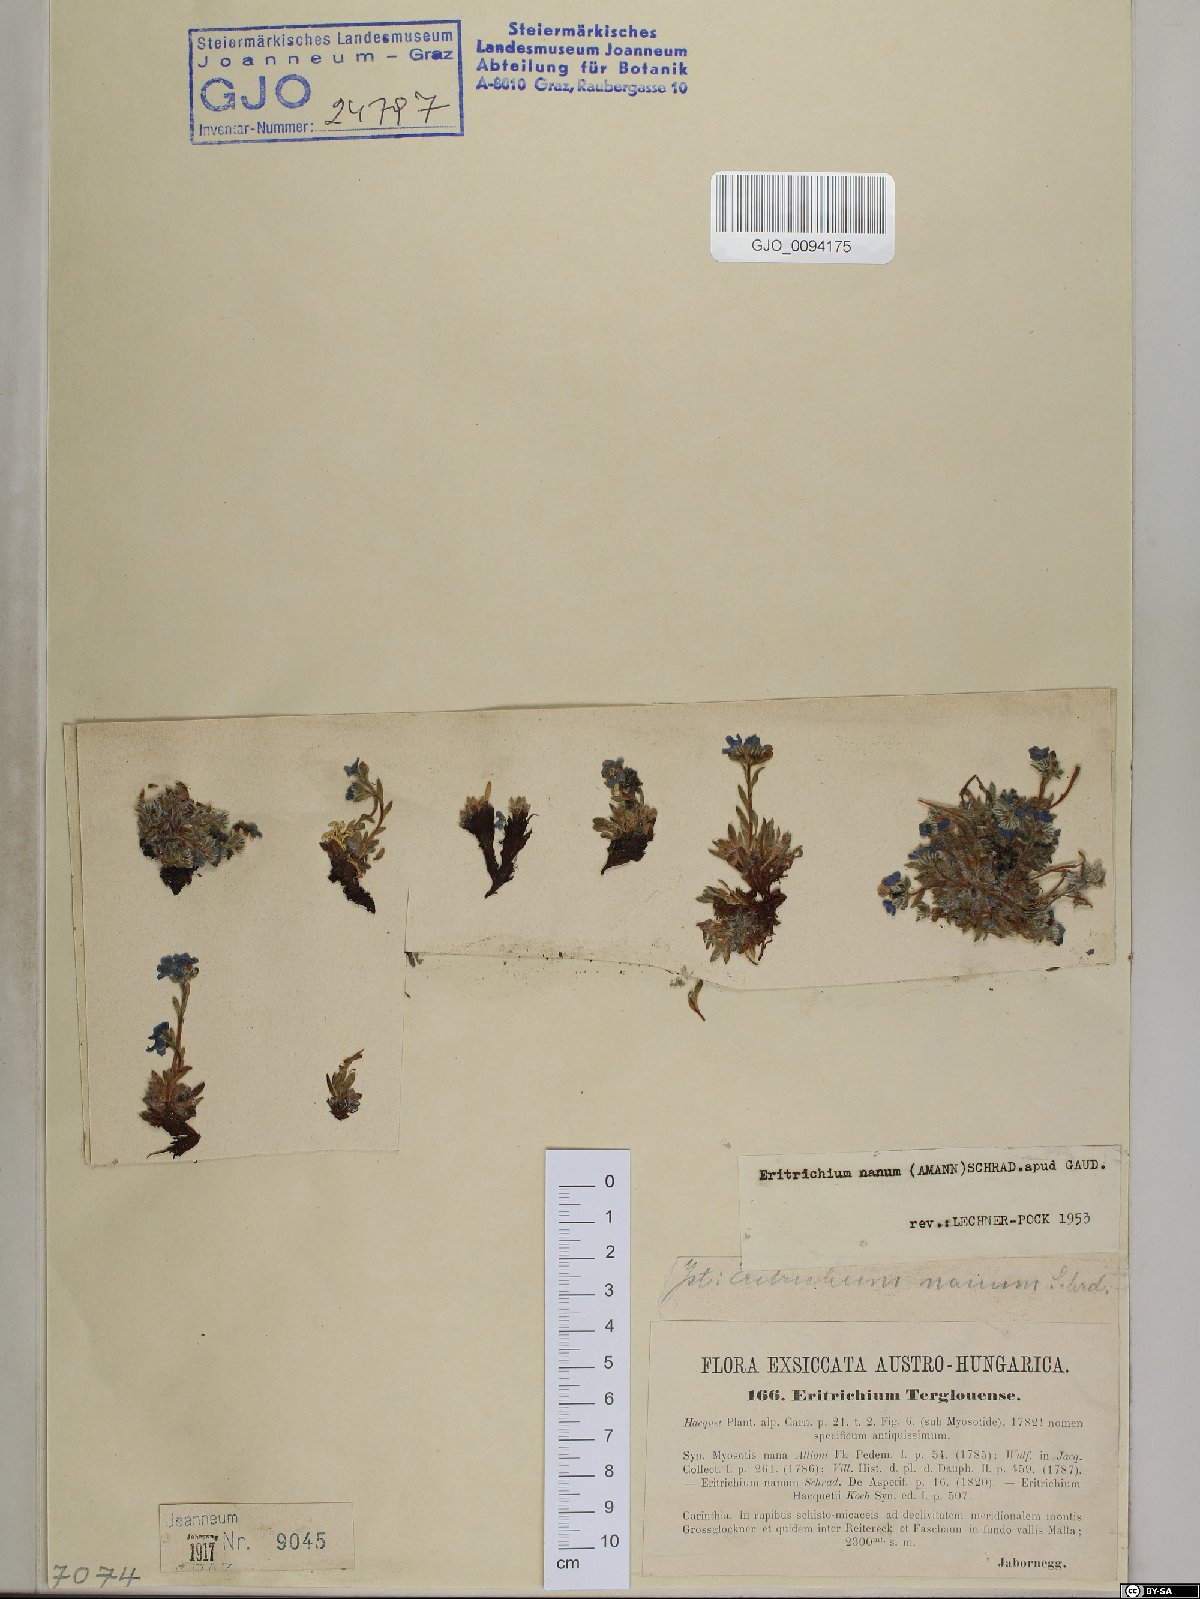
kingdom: Plantae
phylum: Tracheophyta
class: Magnoliopsida
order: Boraginales
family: Boraginaceae
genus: Eritrichium
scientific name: Eritrichium nanum
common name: King-of-the-alps
